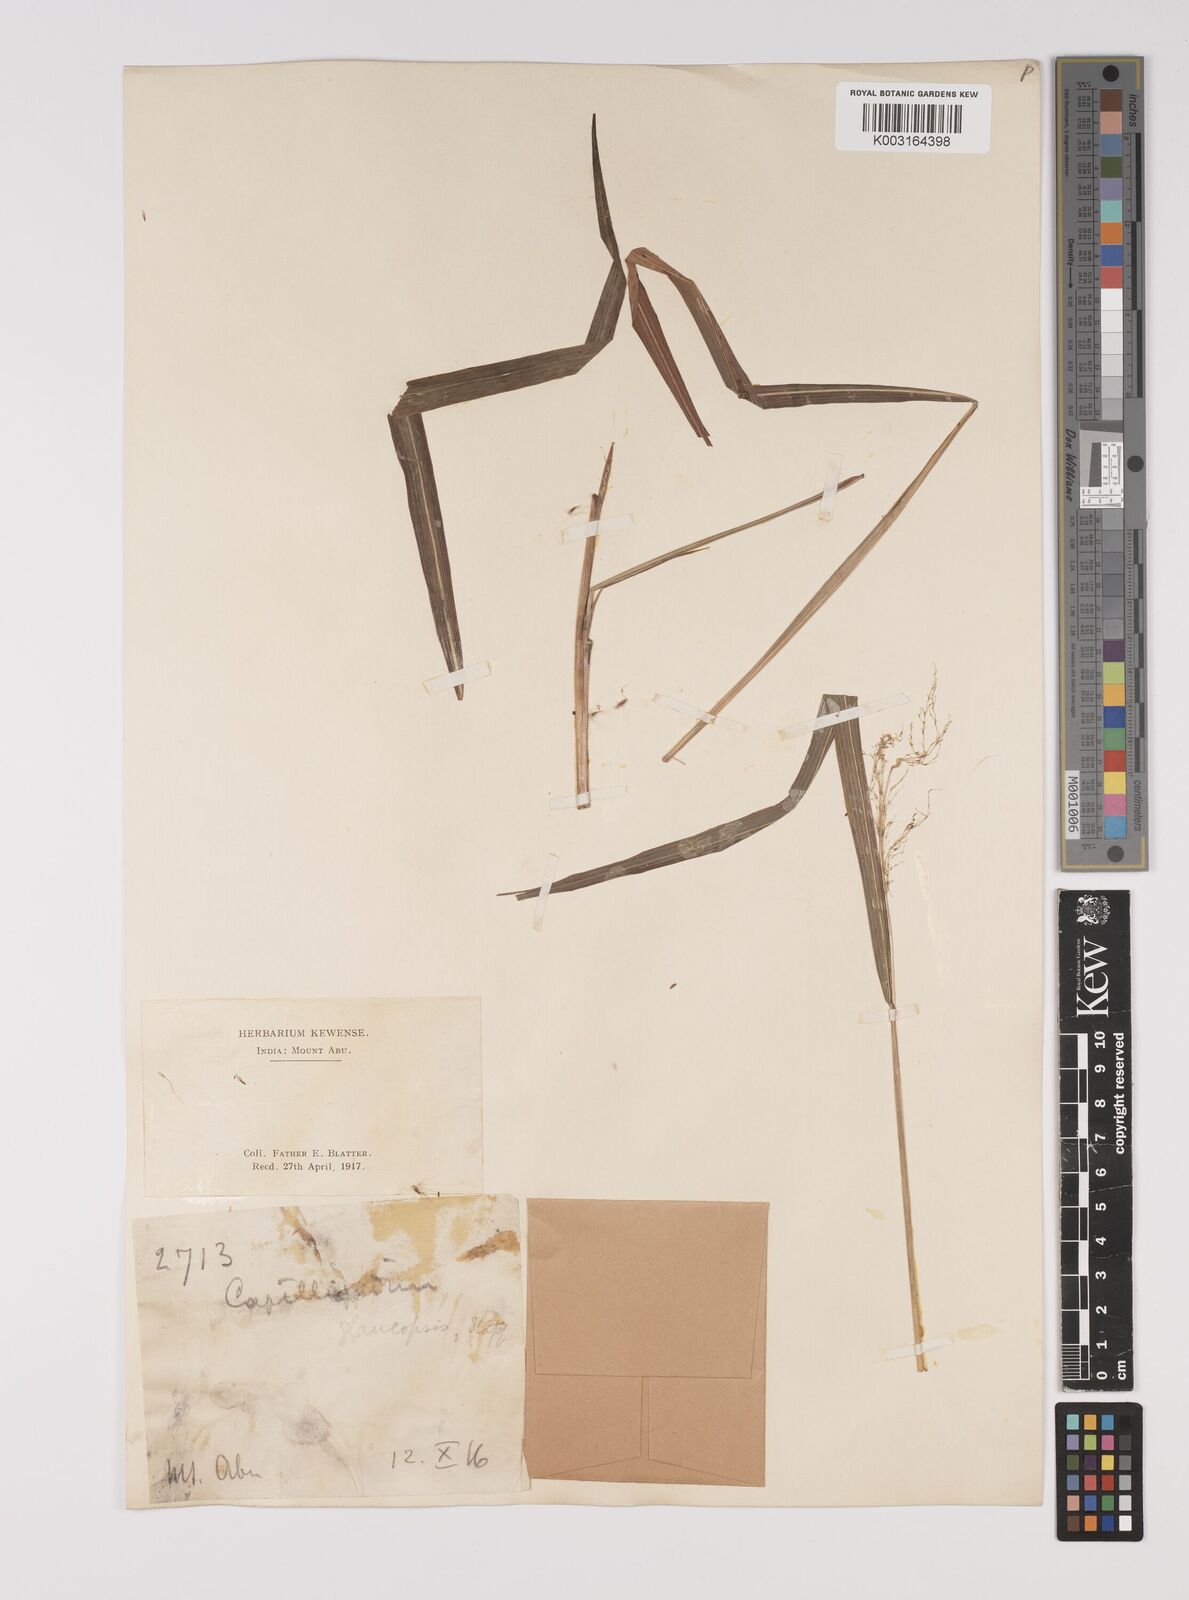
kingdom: Plantae
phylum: Tracheophyta
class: Liliopsida
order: Poales
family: Poaceae
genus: Capillipedium
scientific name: Capillipedium assimile
